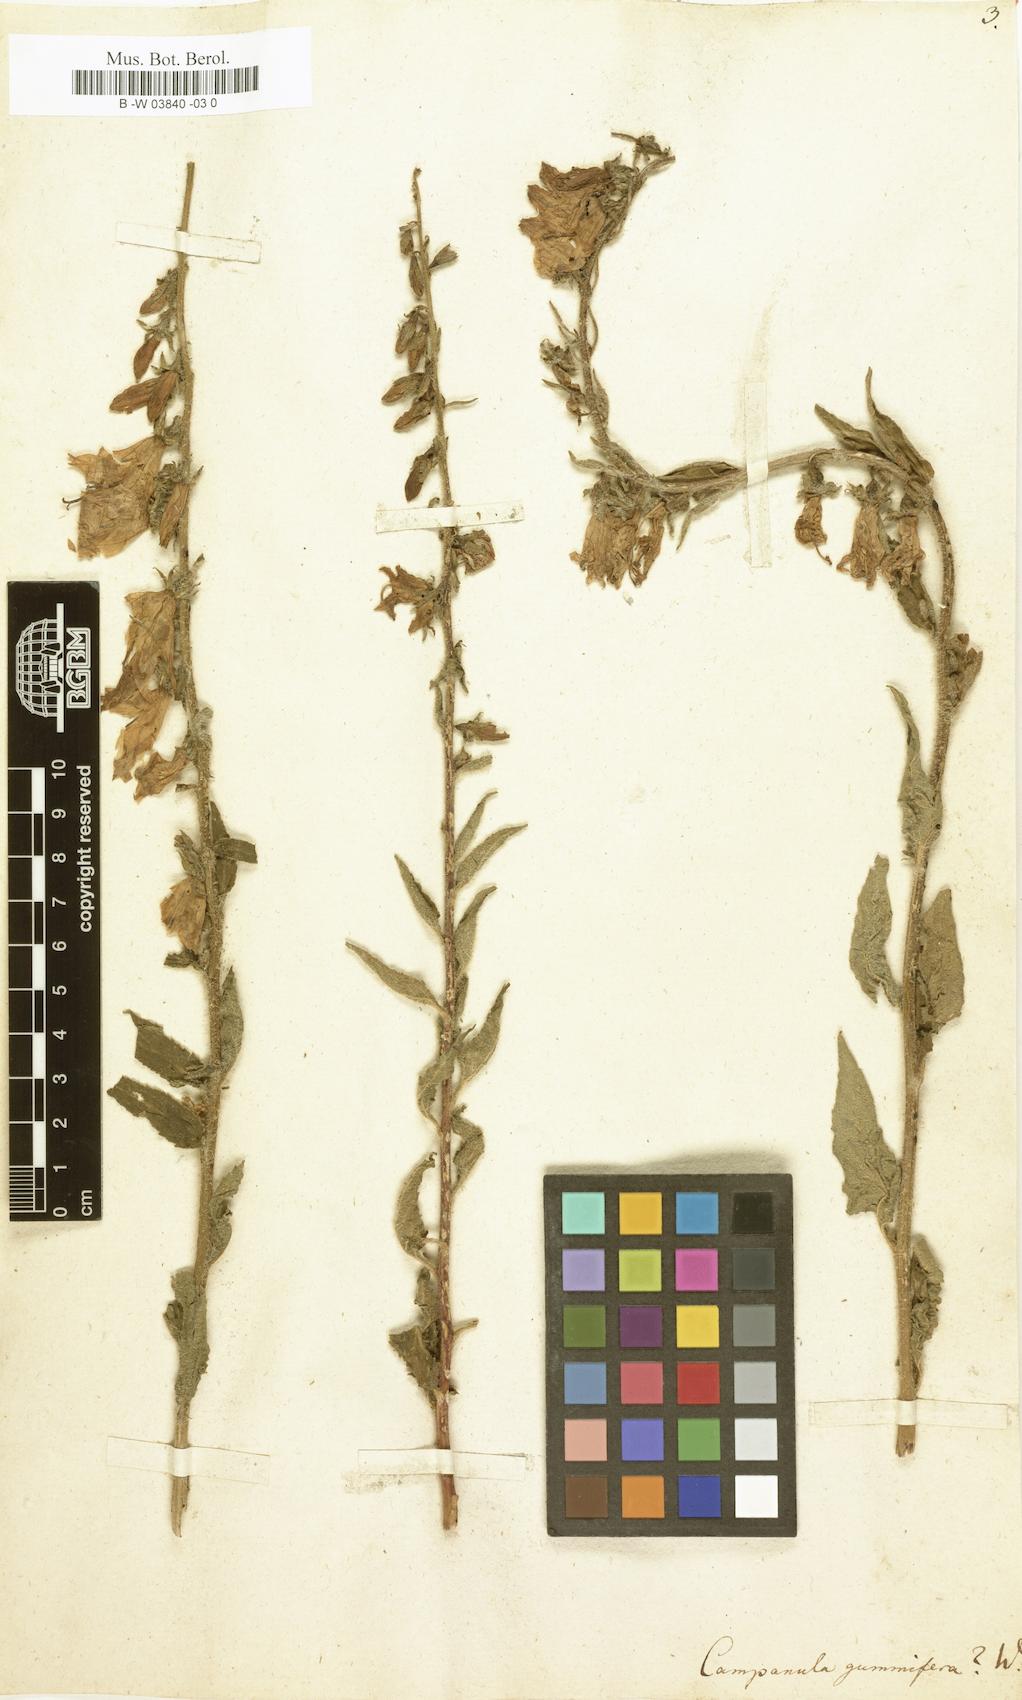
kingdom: Plantae
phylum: Tracheophyta
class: Magnoliopsida
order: Asterales
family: Campanulaceae
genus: Campanula
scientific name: Campanula sarmatica
